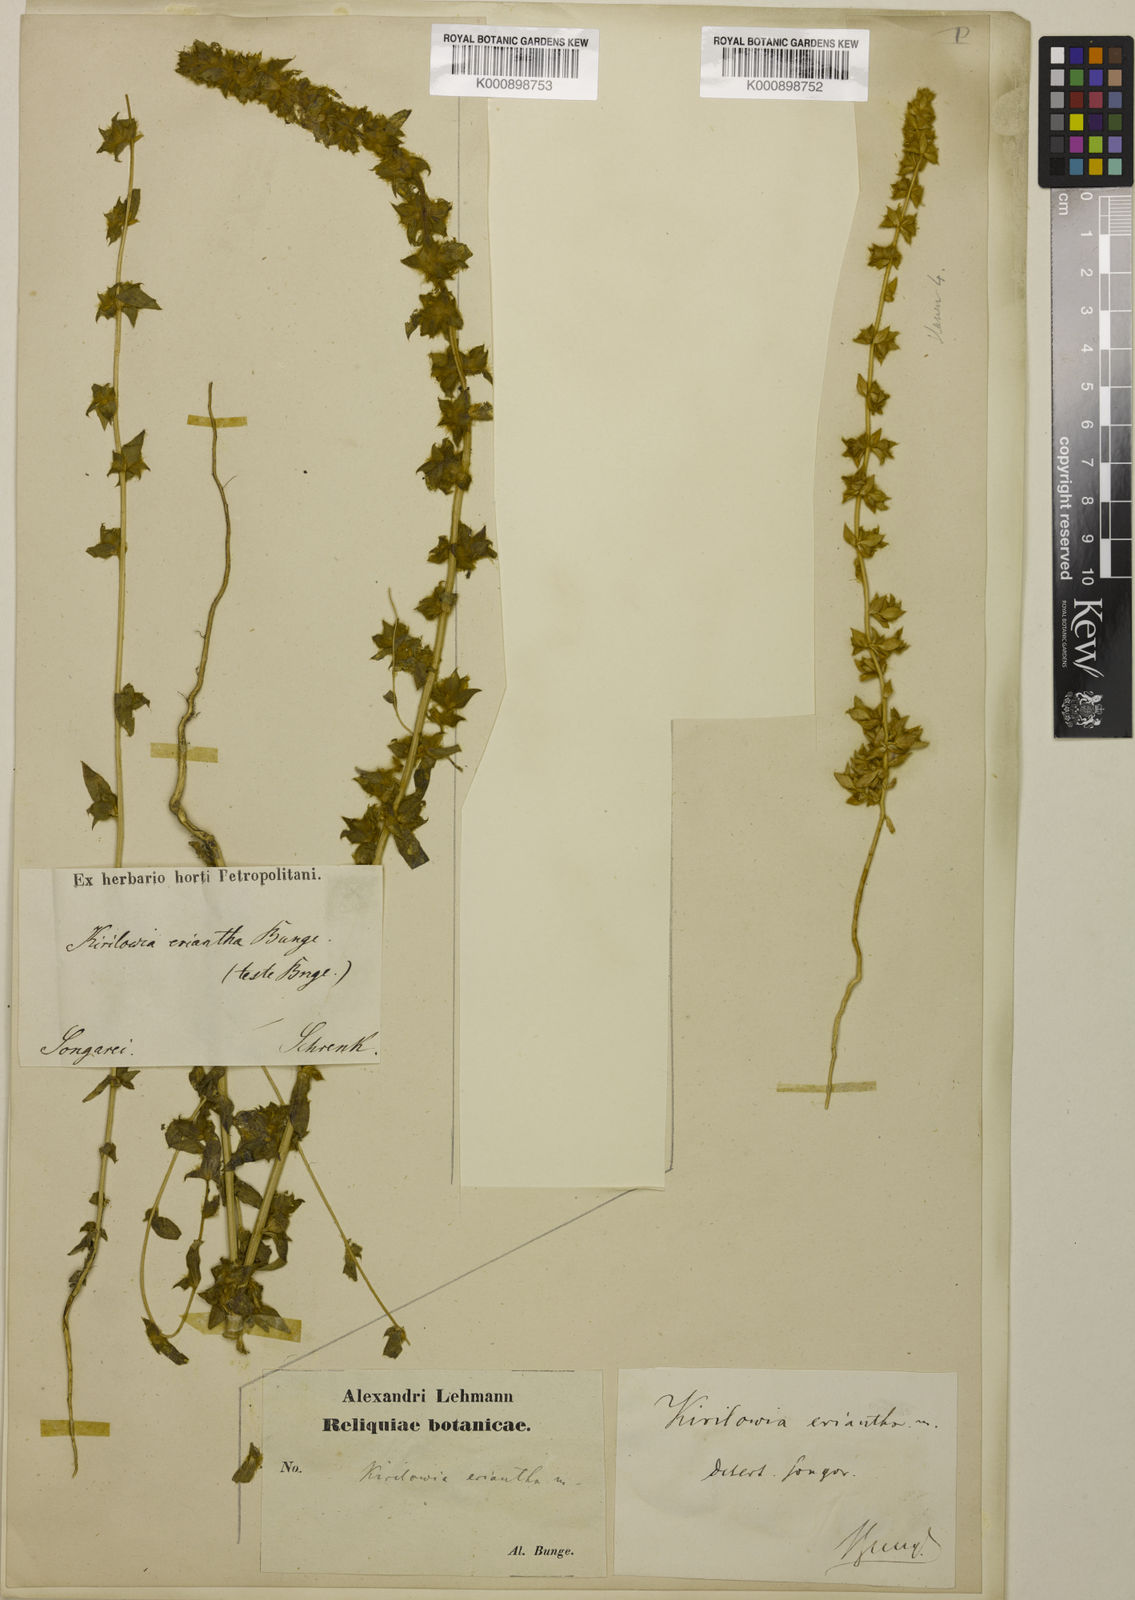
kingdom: Plantae
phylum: Tracheophyta
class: Magnoliopsida
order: Caryophyllales
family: Amaranthaceae
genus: Bassia
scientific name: Bassia lasiantha
